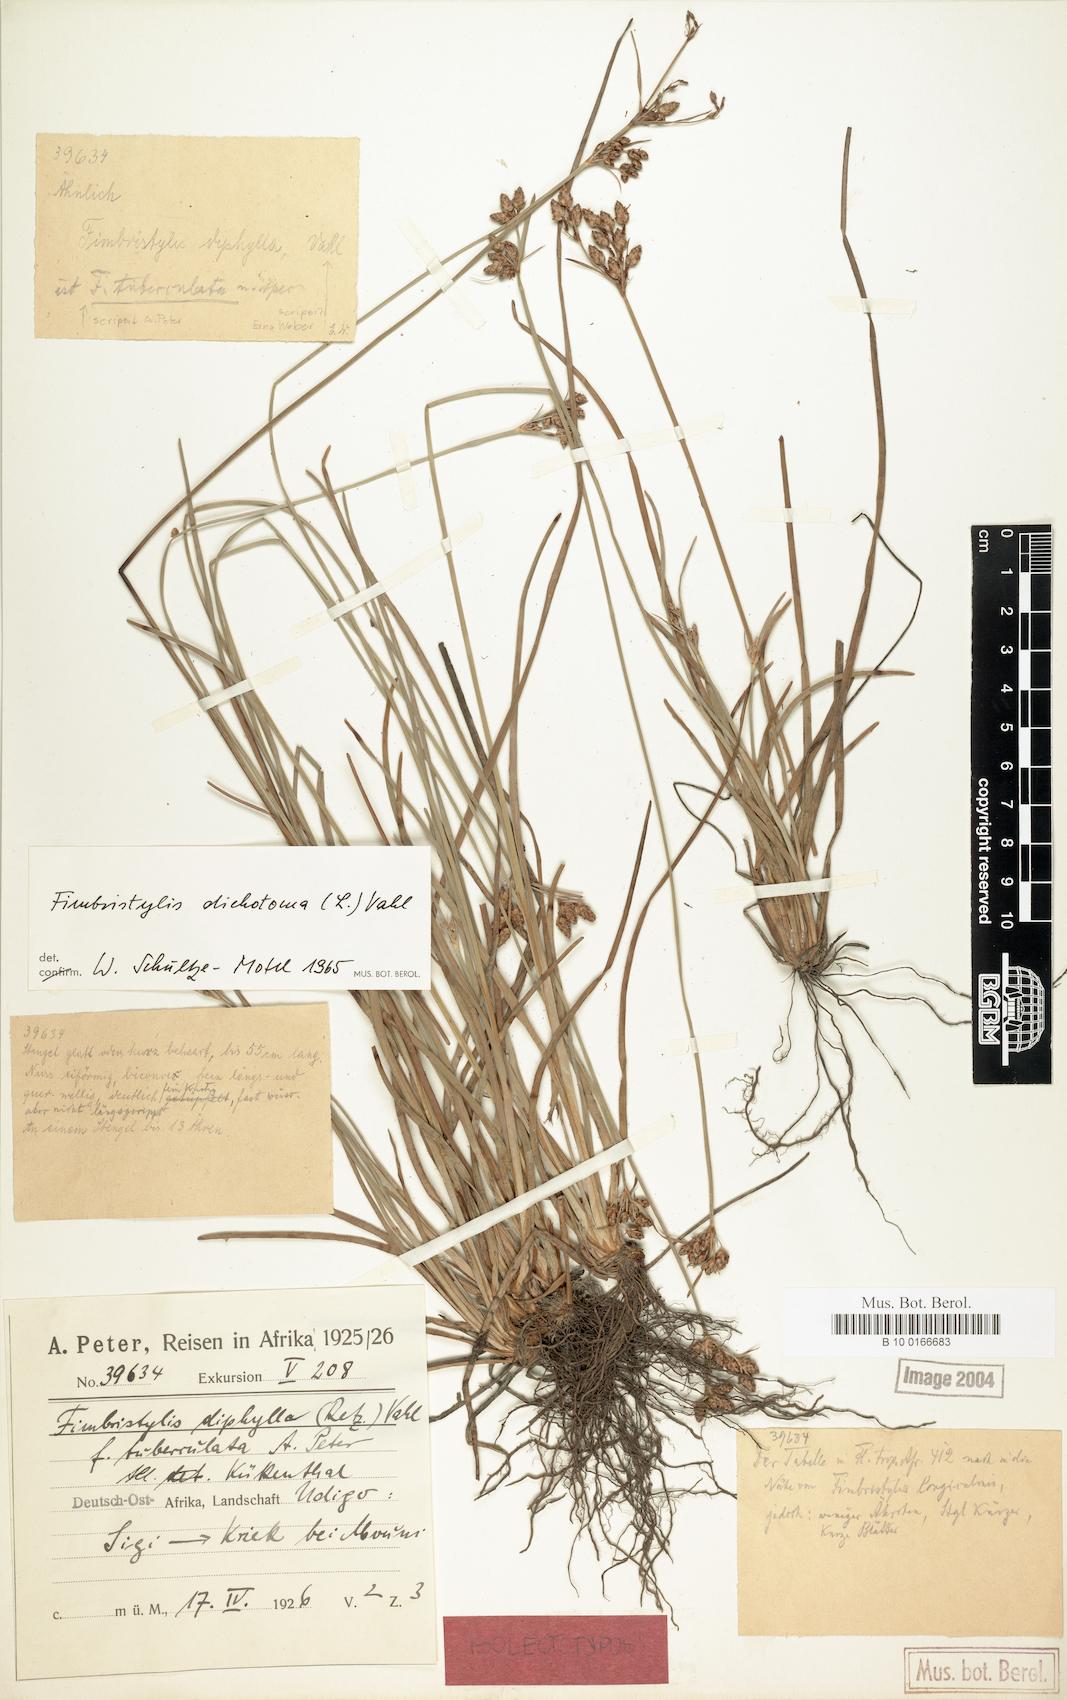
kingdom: Plantae
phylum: Tracheophyta
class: Liliopsida
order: Poales
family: Cyperaceae
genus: Fimbristylis
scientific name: Fimbristylis dichotoma
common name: Forked fimbry
